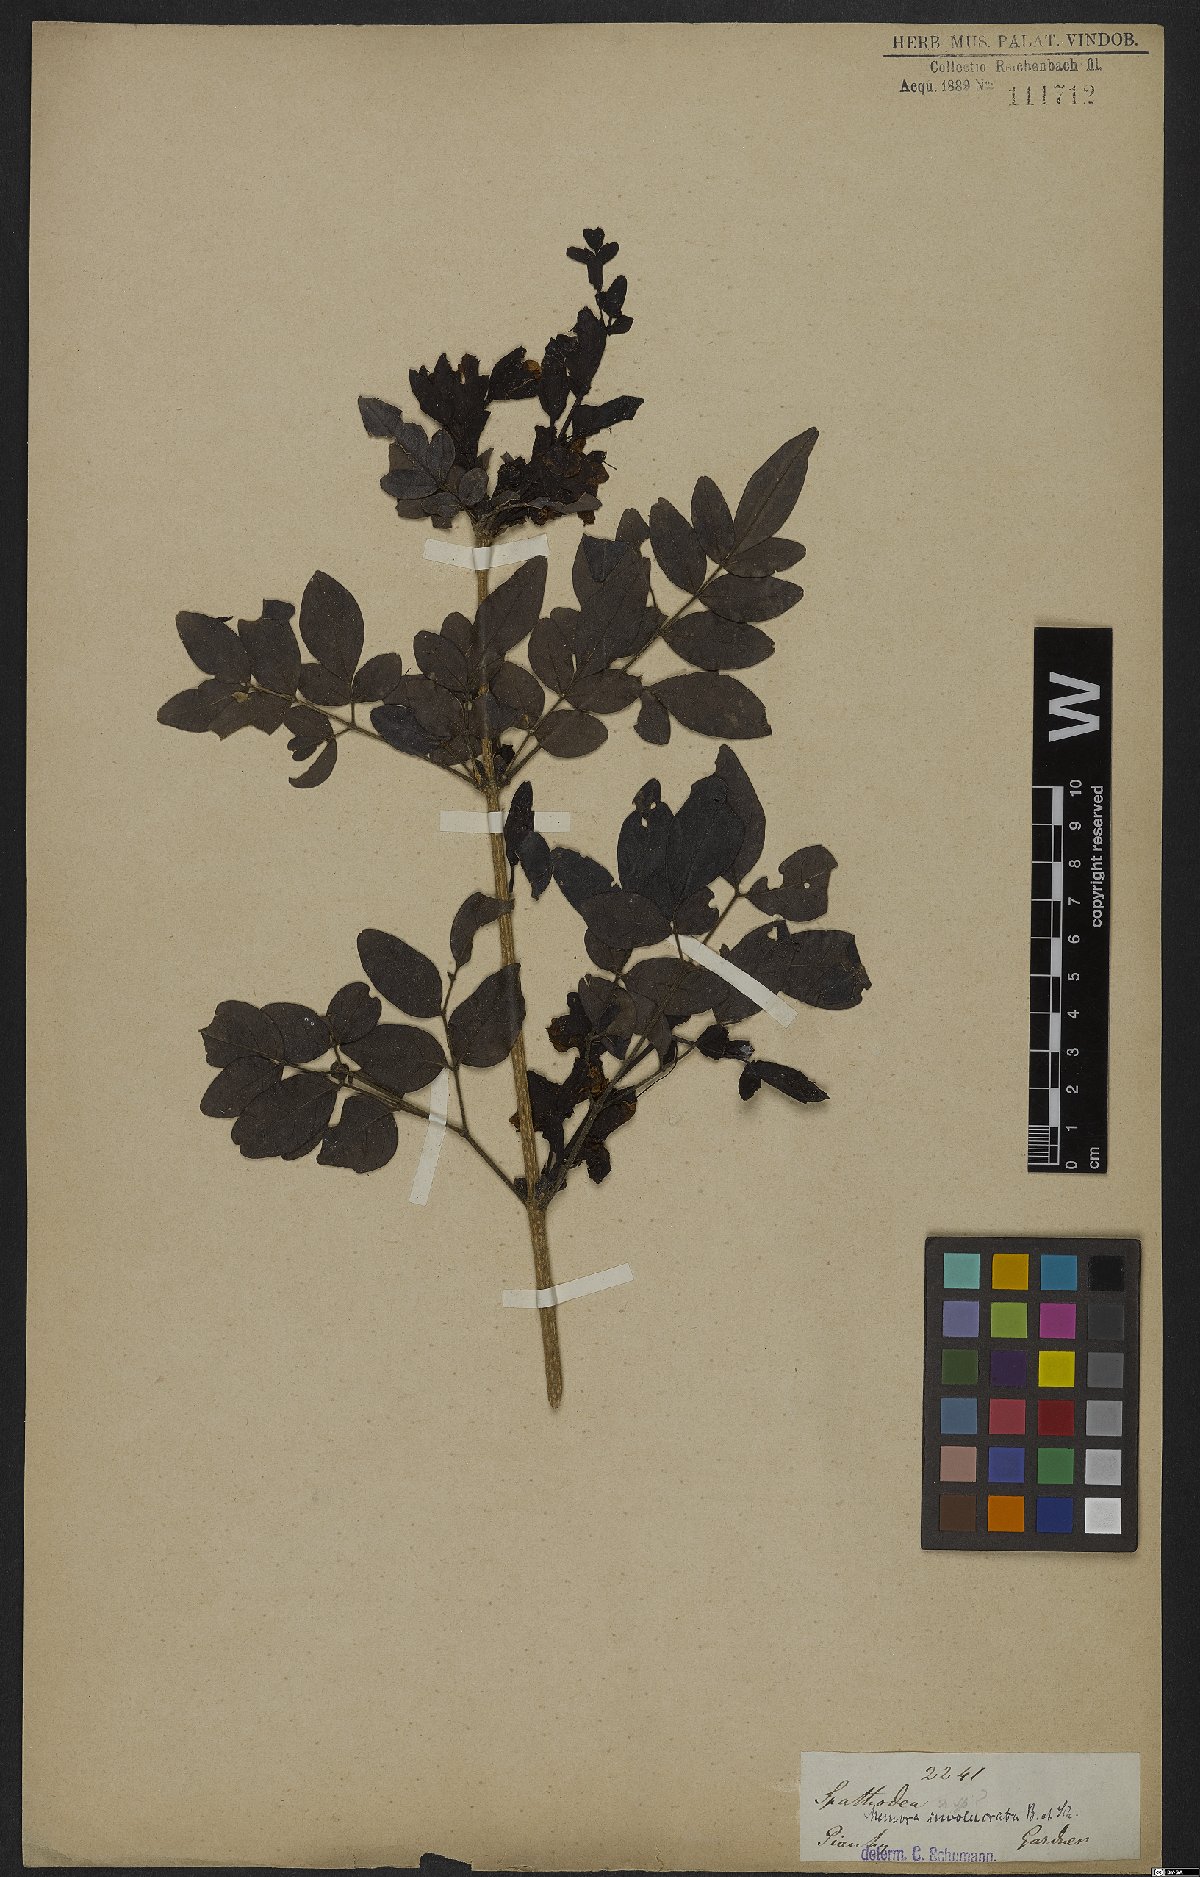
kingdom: Plantae
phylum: Tracheophyta
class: Magnoliopsida
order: Lamiales
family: Bignoniaceae
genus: Adenocalymma
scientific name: Adenocalymma involucratum
